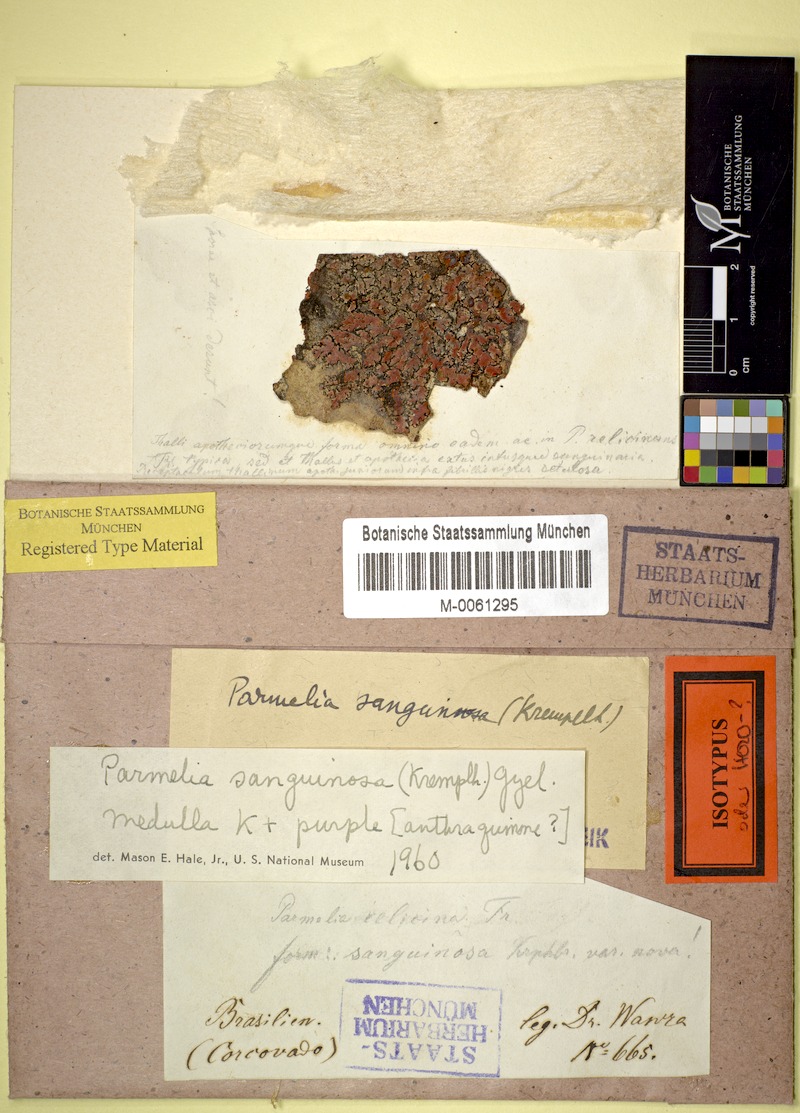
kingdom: Fungi
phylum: Ascomycota
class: Lecanoromycetes
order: Lecanorales
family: Parmeliaceae
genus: Parmelia
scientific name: Parmelia
